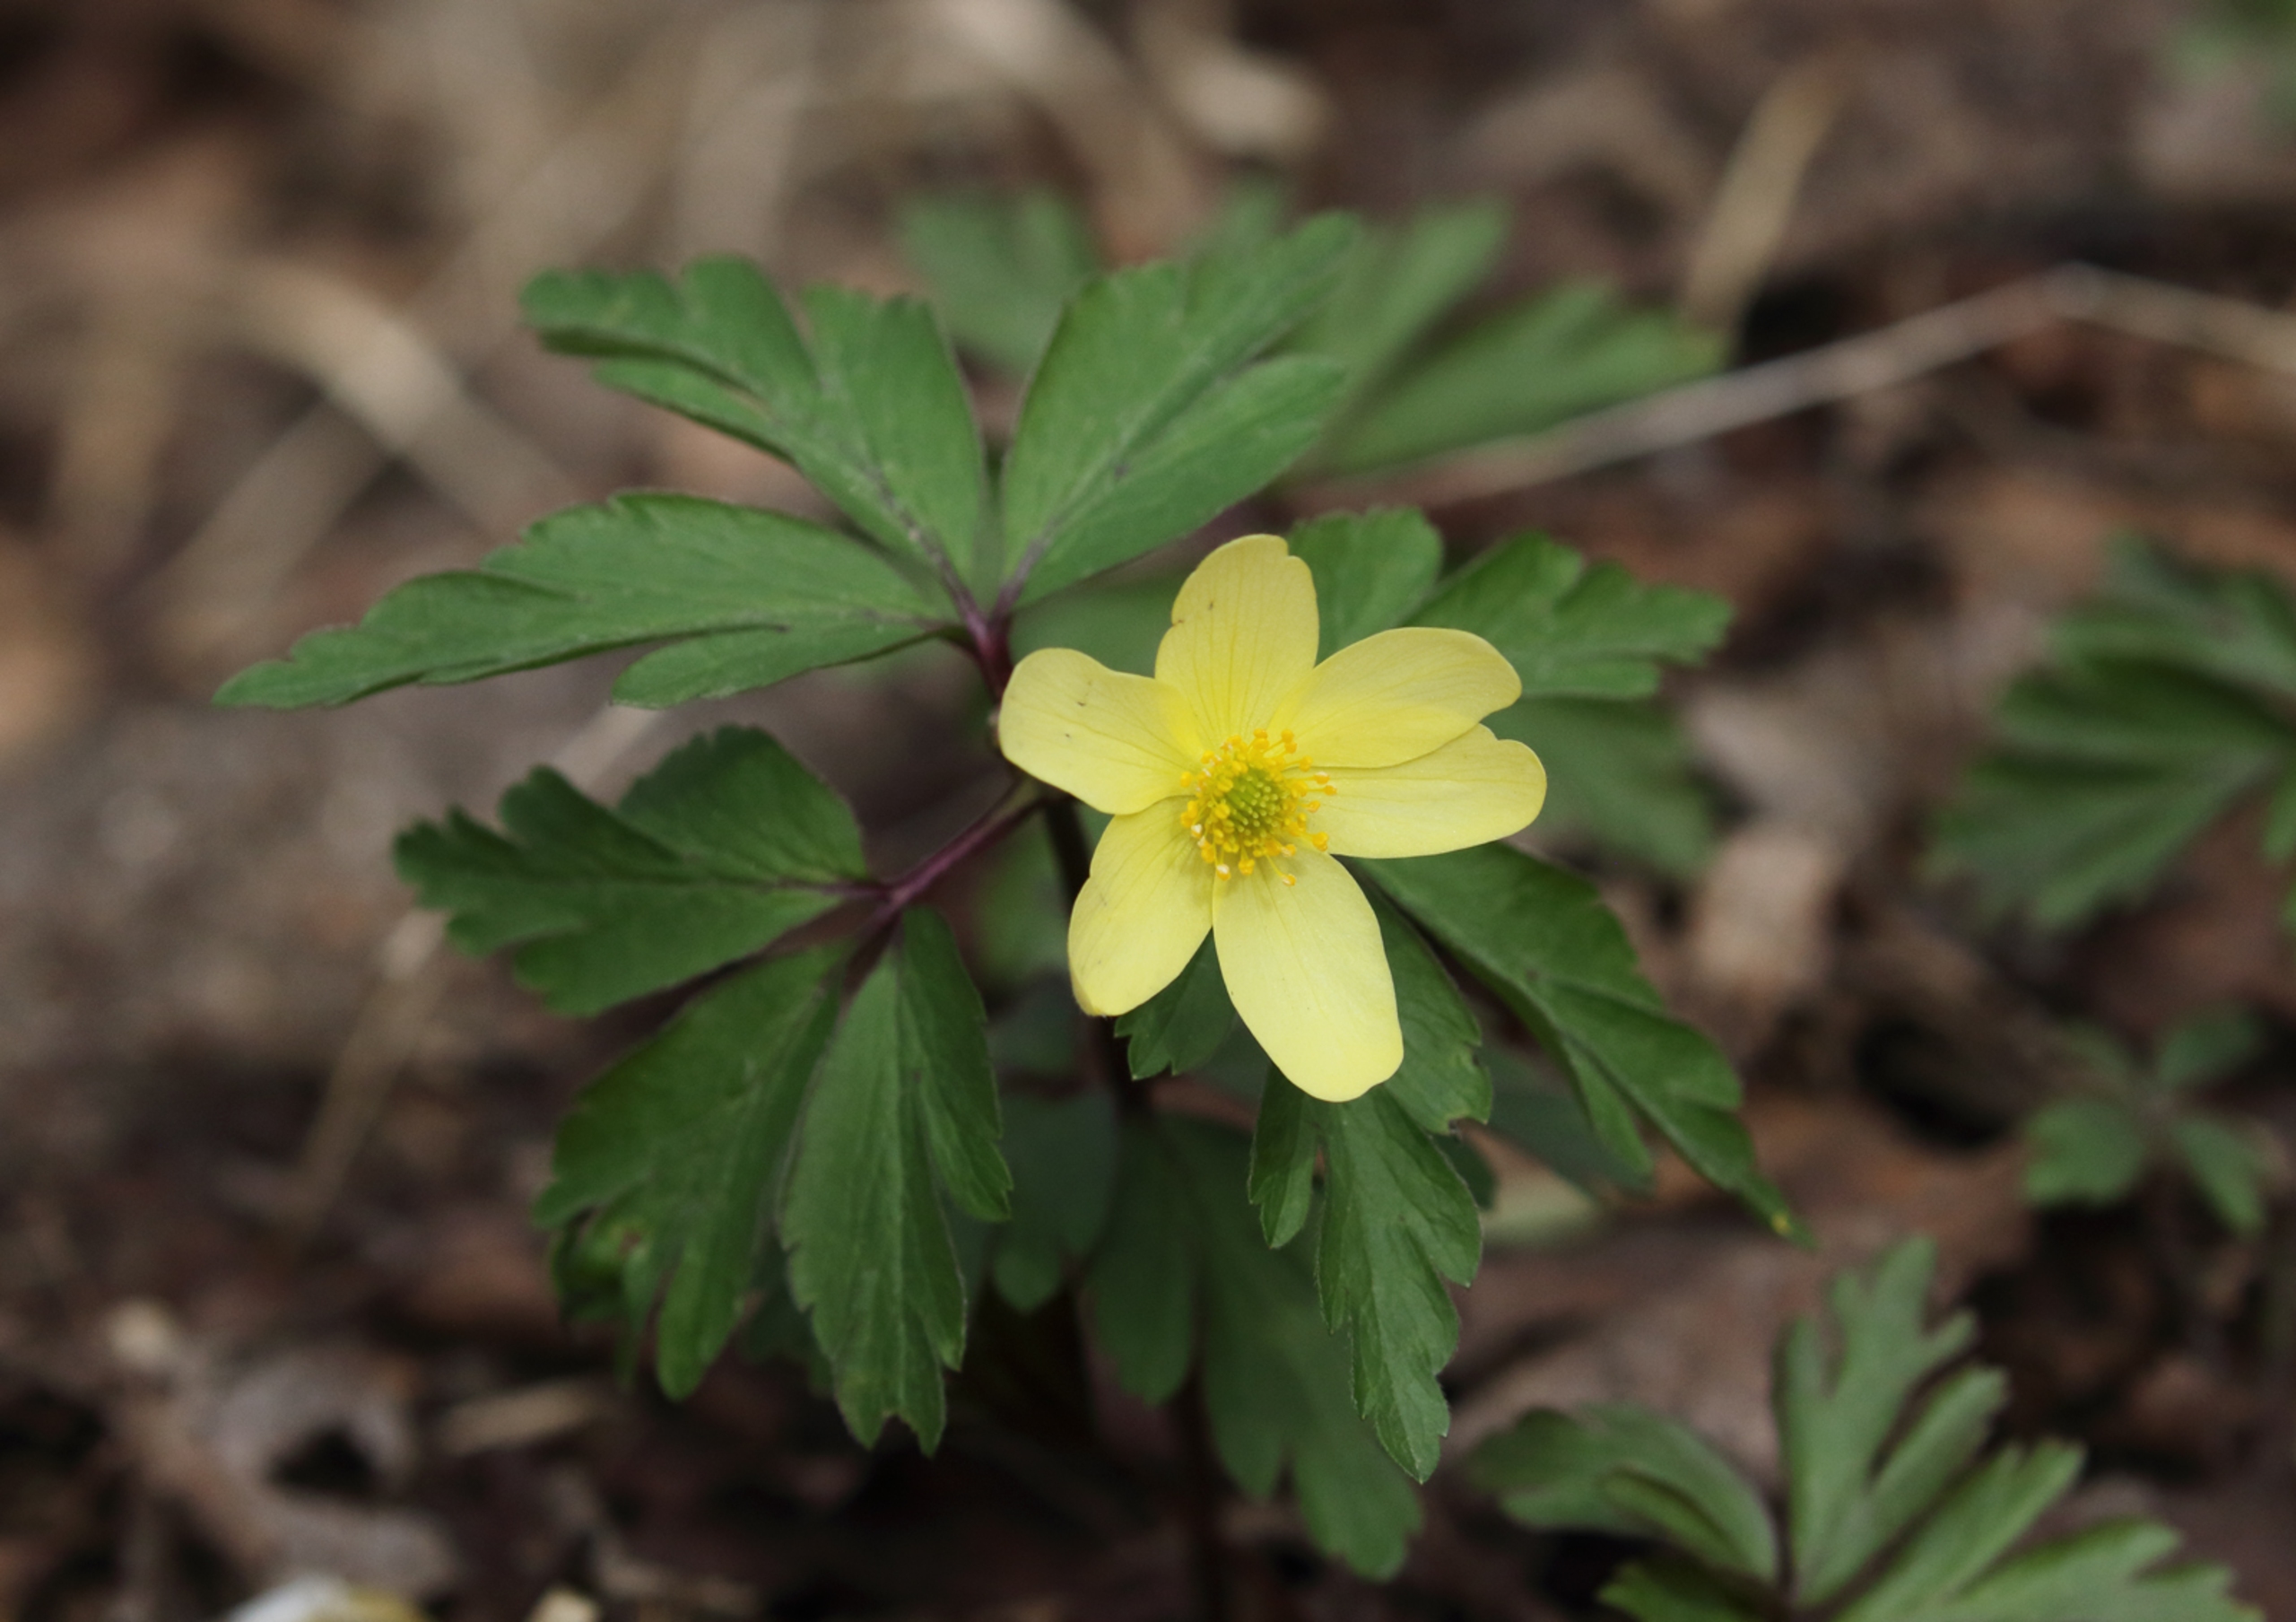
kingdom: Plantae
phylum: Tracheophyta
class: Magnoliopsida
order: Ranunculales
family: Ranunculaceae
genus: Anemone
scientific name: Anemone
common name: Svovlgul anemone
